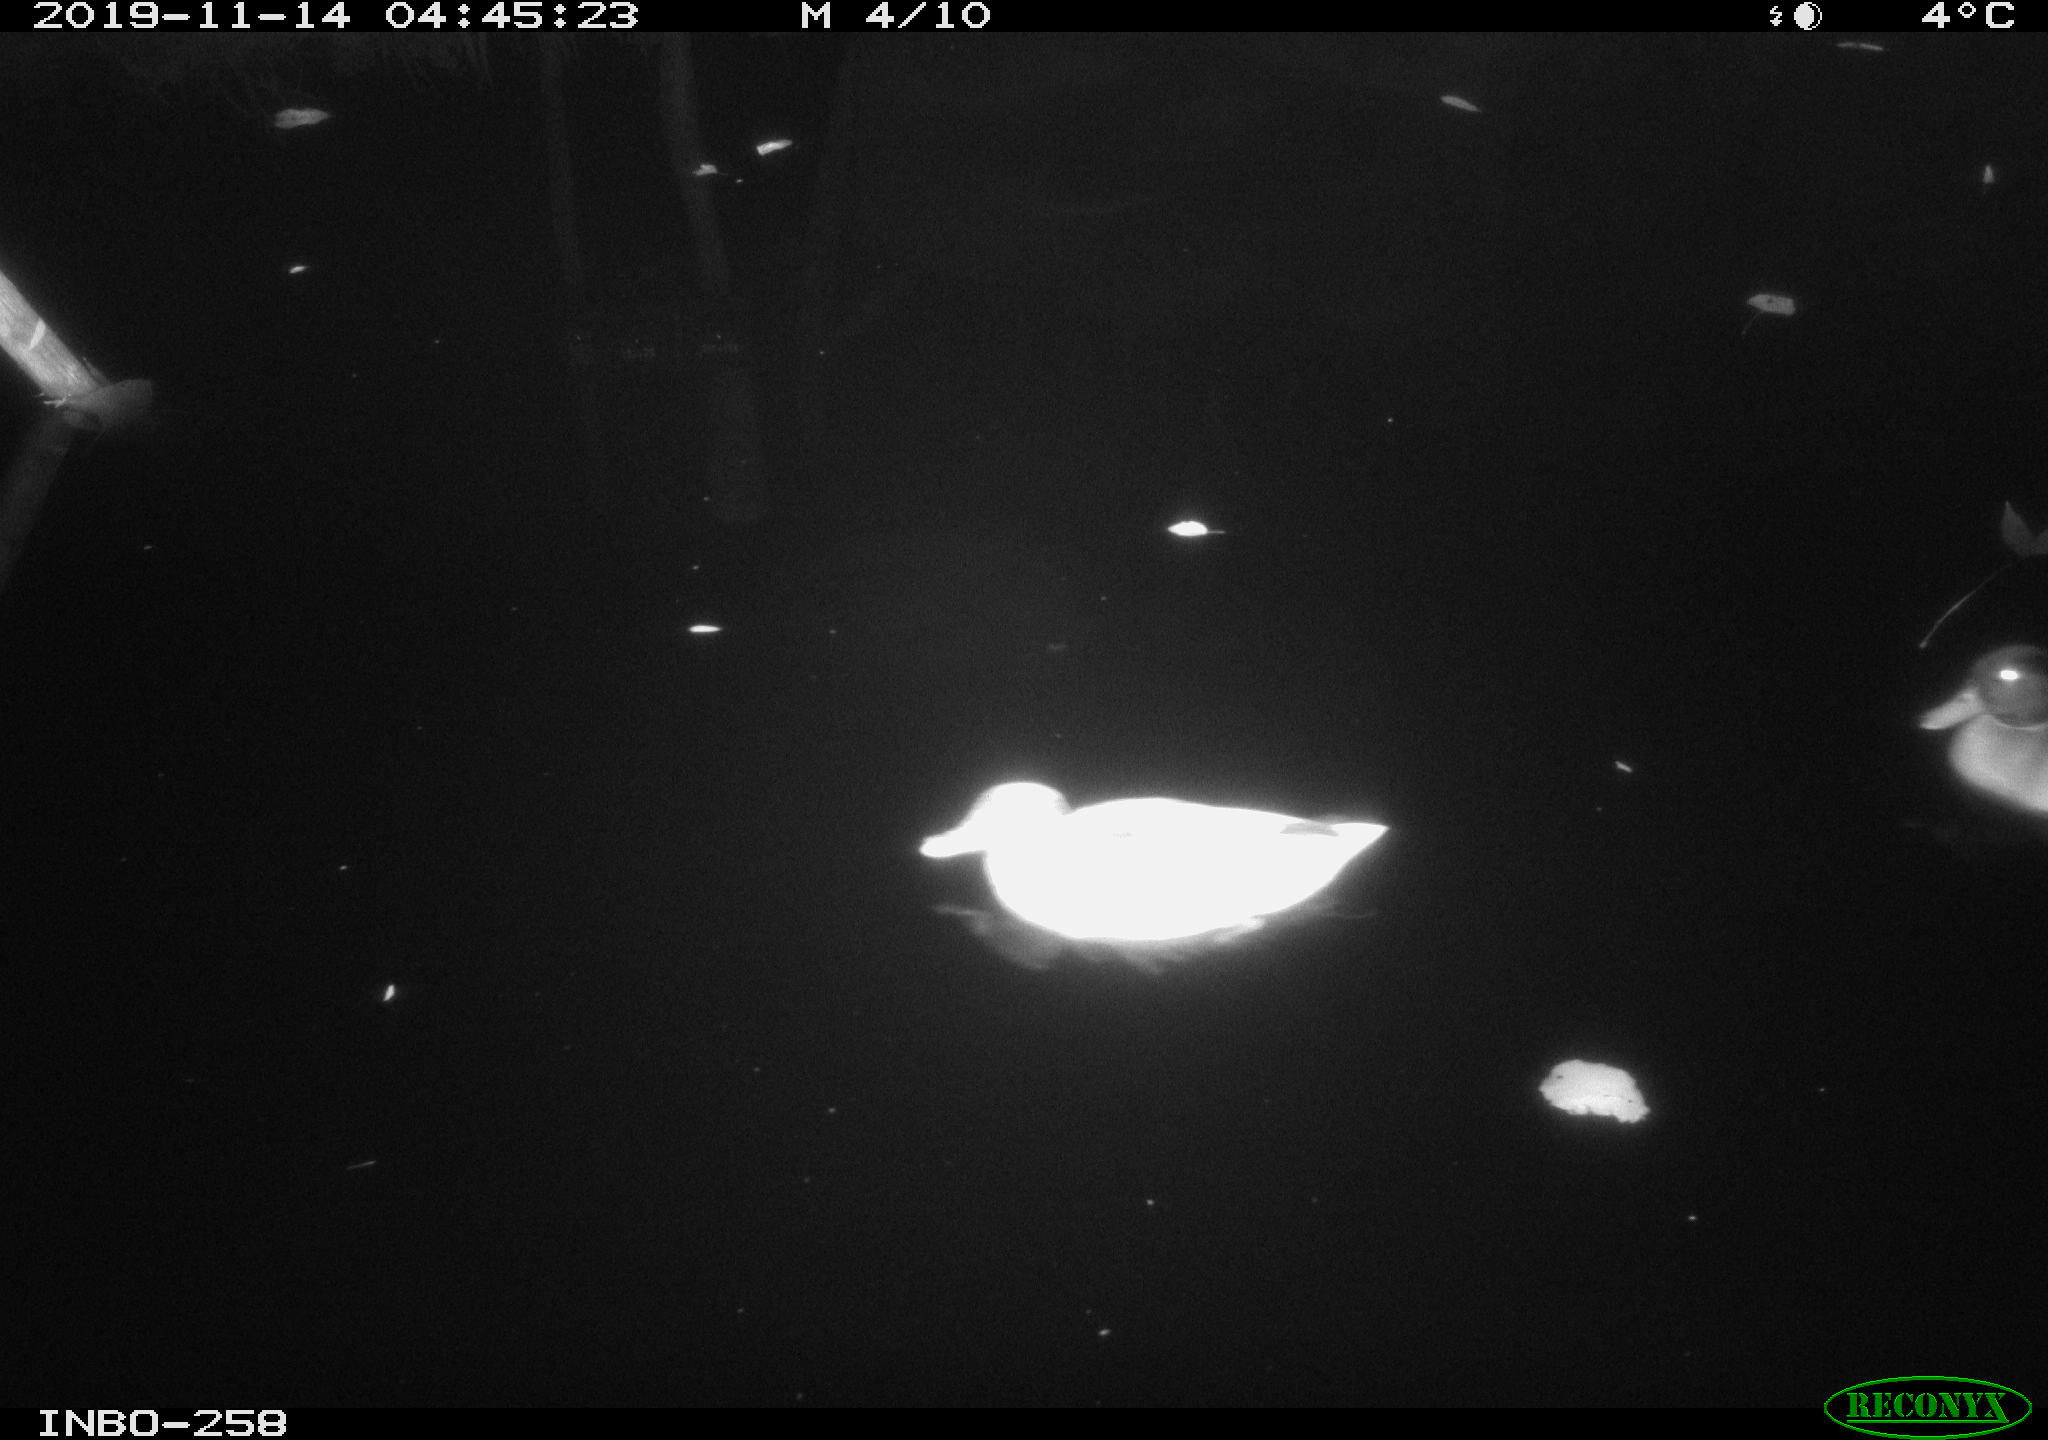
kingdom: Animalia
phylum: Chordata
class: Aves
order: Anseriformes
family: Anatidae
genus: Anas
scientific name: Anas platyrhynchos
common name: Mallard
